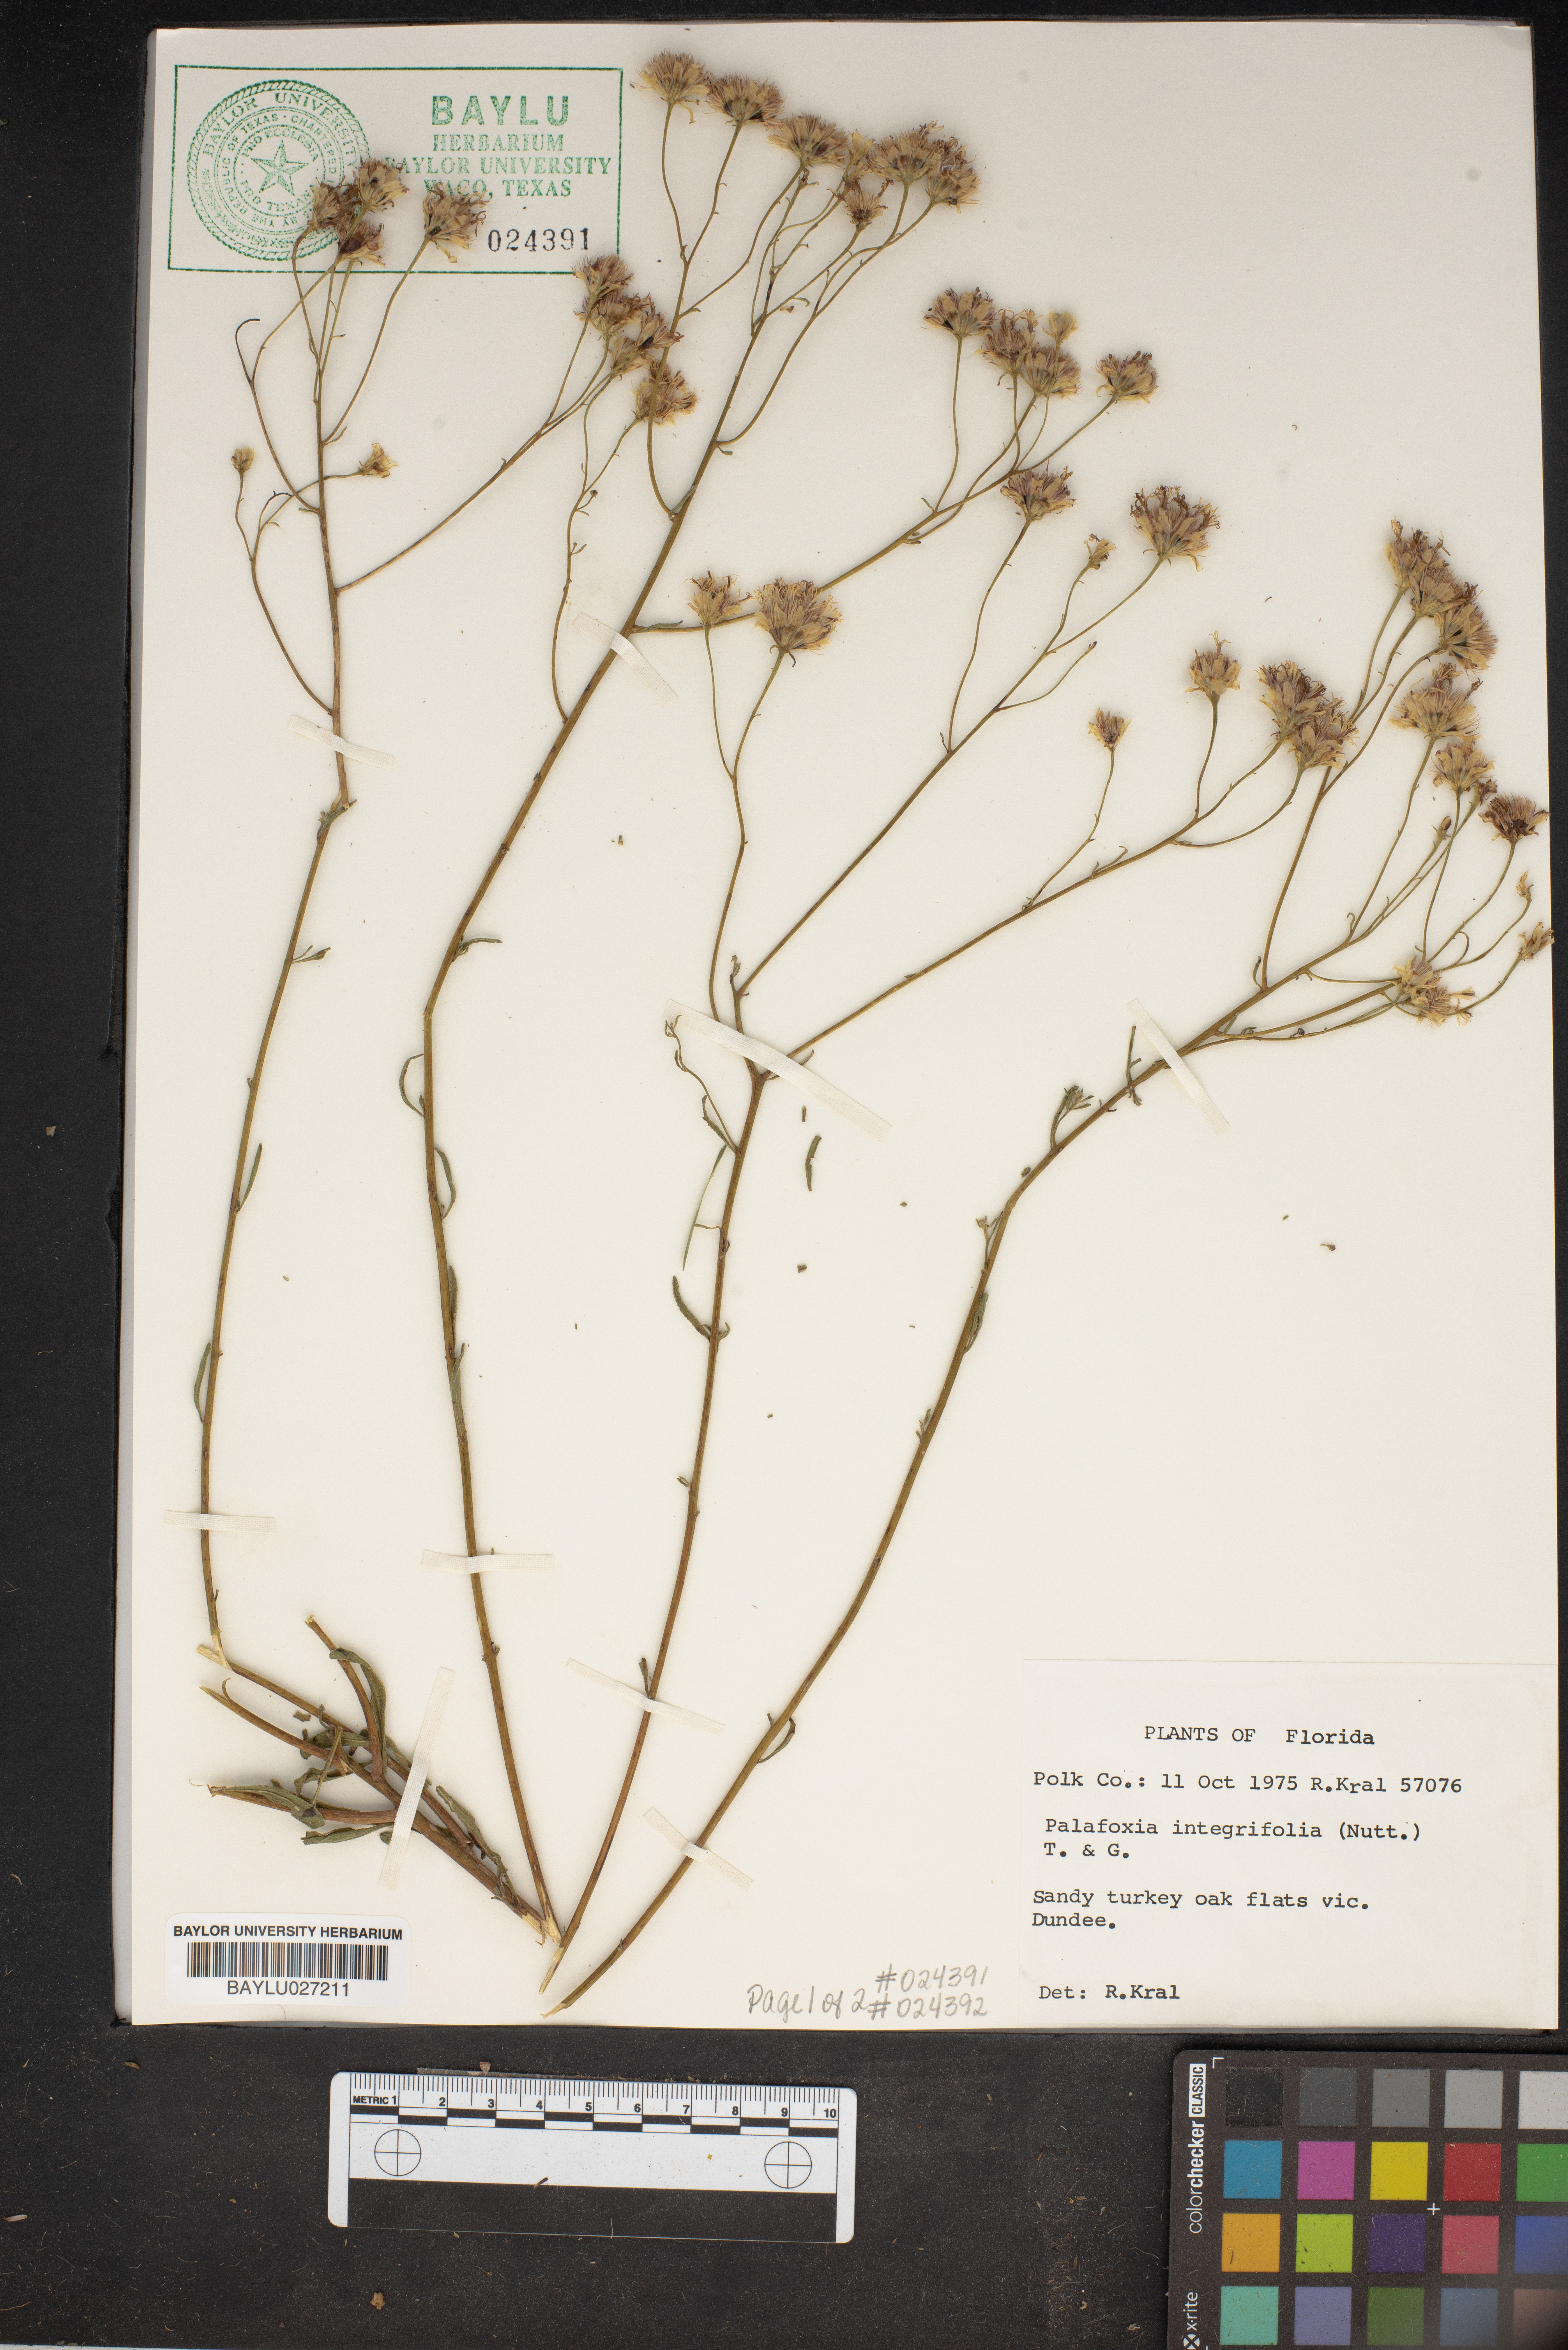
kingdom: Plantae
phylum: Tracheophyta
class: Magnoliopsida
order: Asterales
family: Asteraceae
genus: Palafoxia
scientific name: Palafoxia integrifolia
